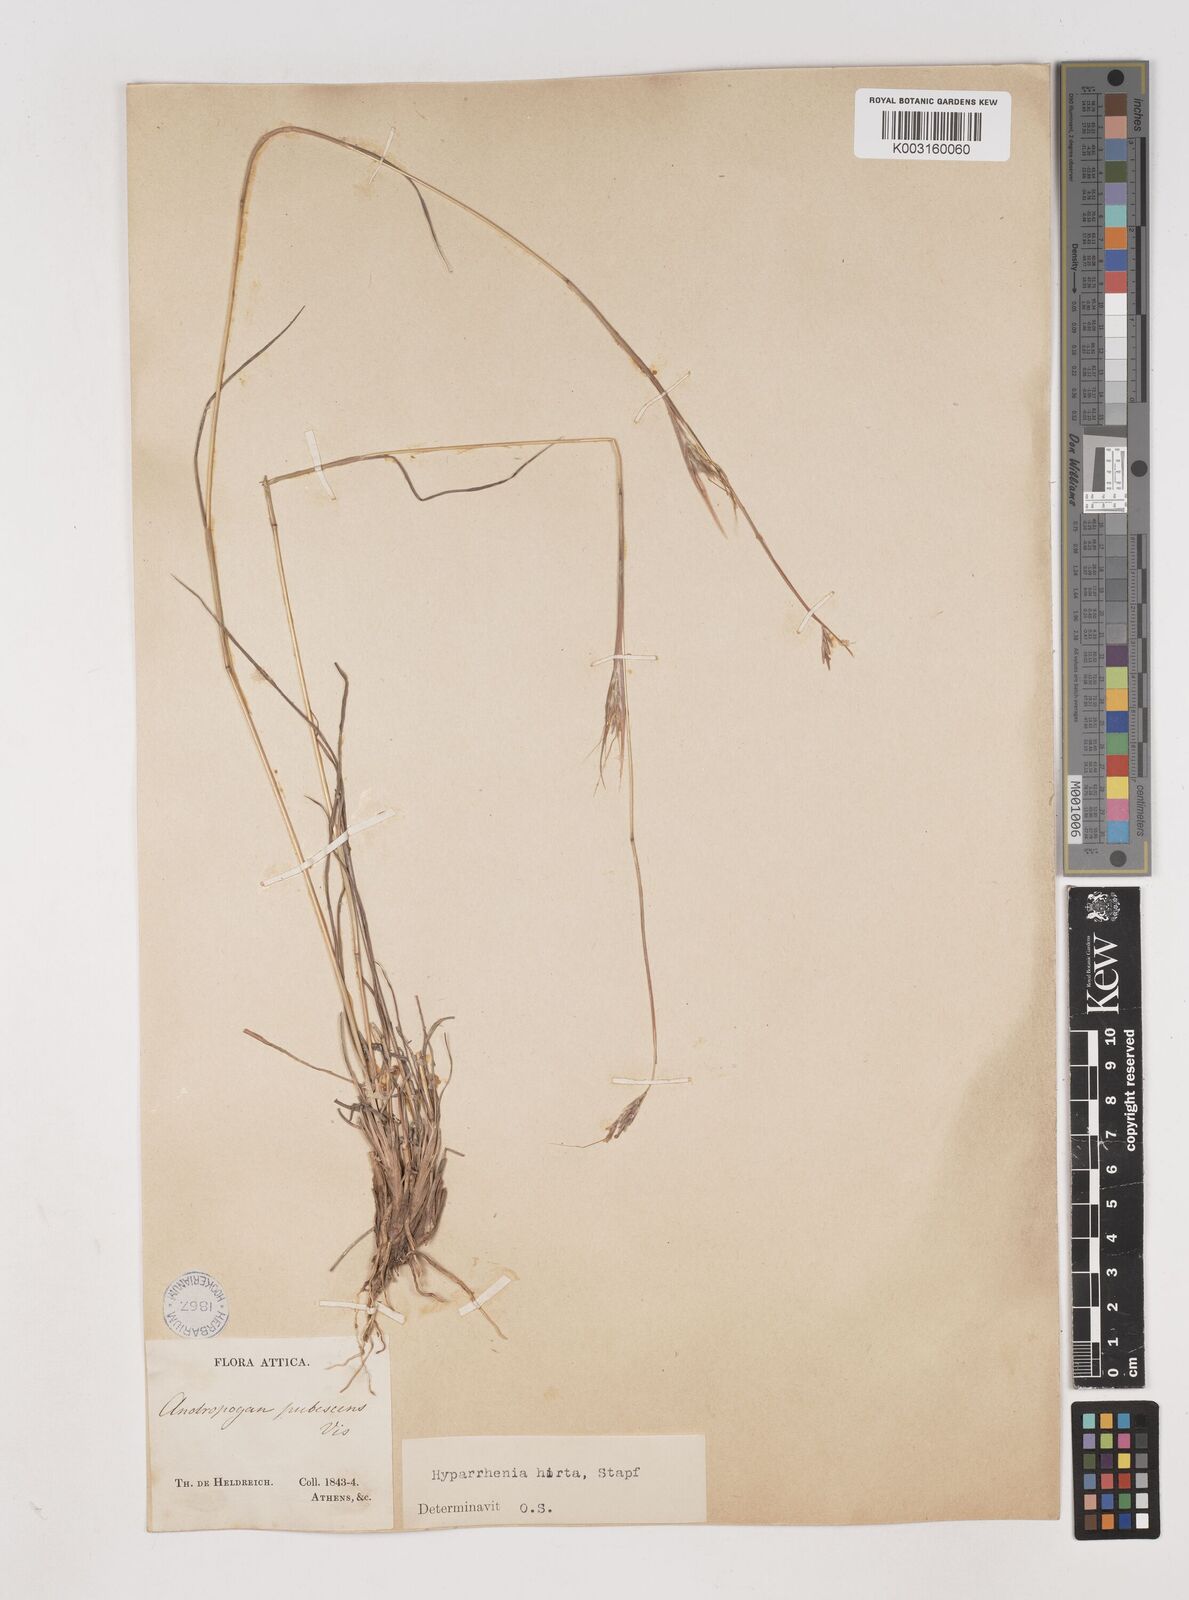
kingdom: Plantae
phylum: Tracheophyta
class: Liliopsida
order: Poales
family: Poaceae
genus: Hyparrhenia
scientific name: Hyparrhenia hirta
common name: Thatching grass
